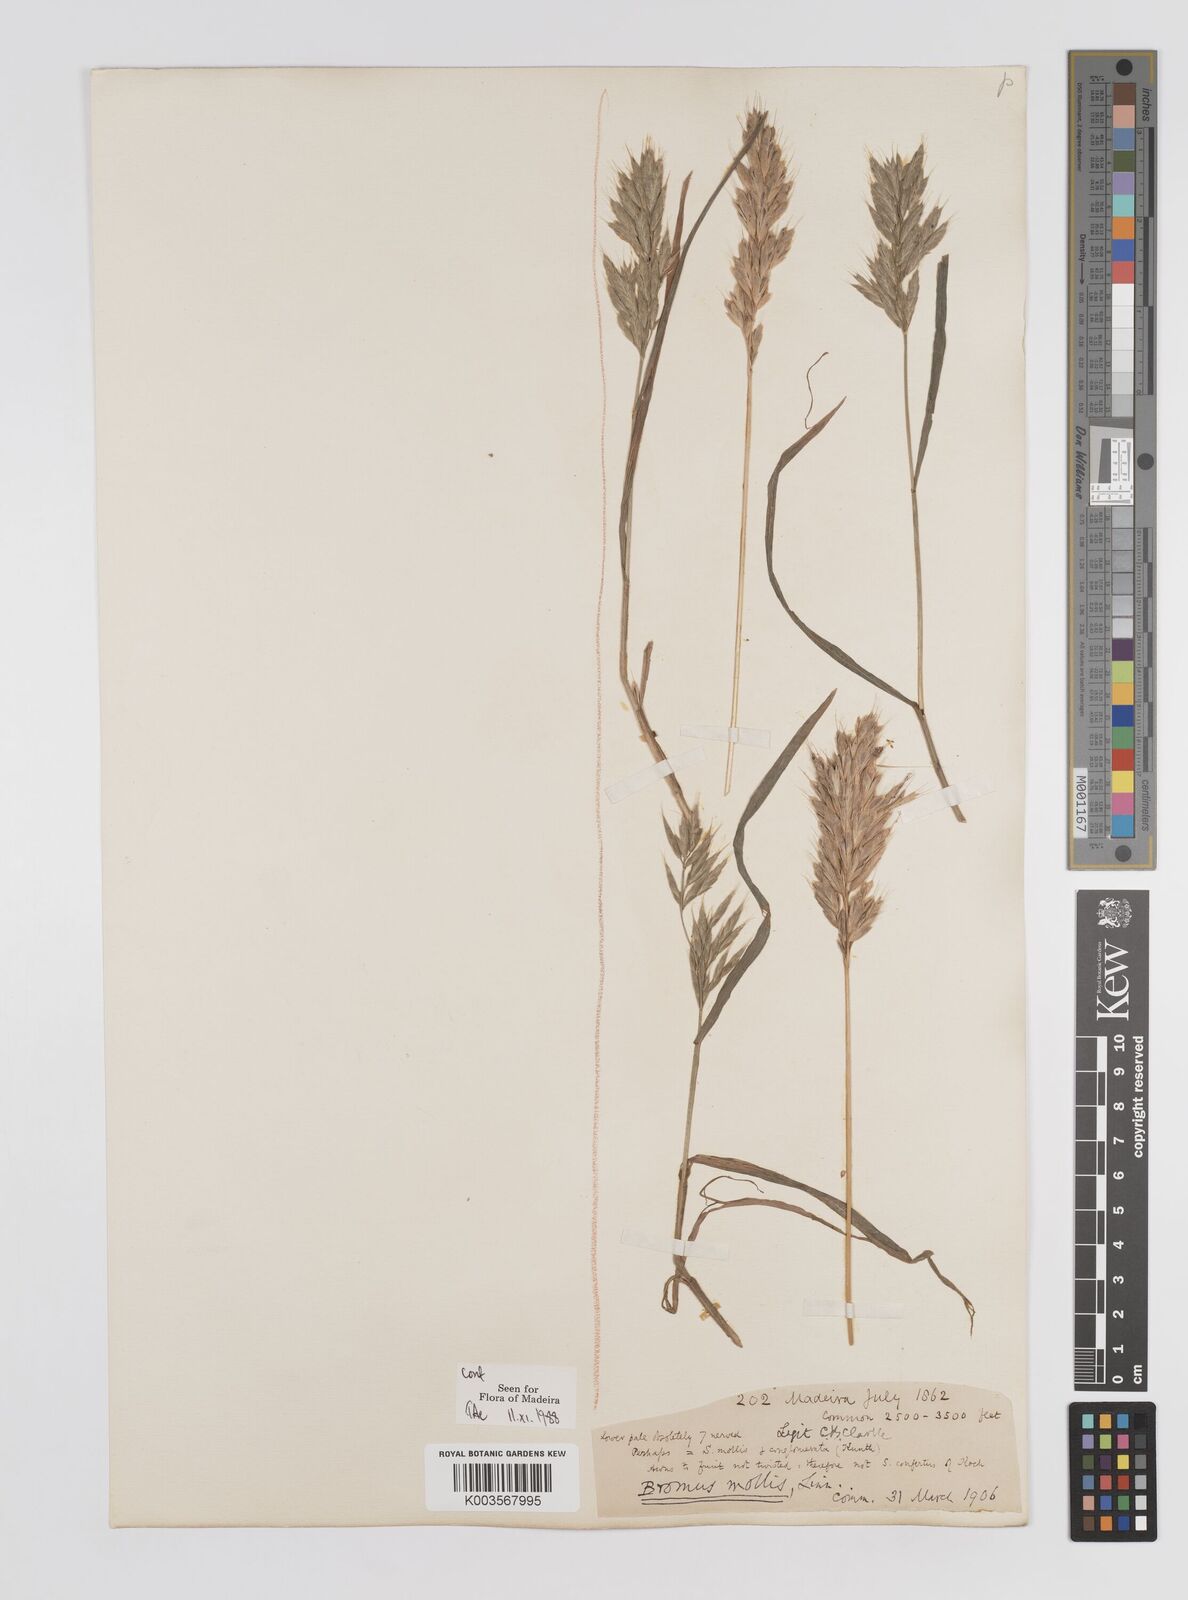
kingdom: Plantae
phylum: Tracheophyta
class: Liliopsida
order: Poales
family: Poaceae
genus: Bromus
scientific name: Bromus
